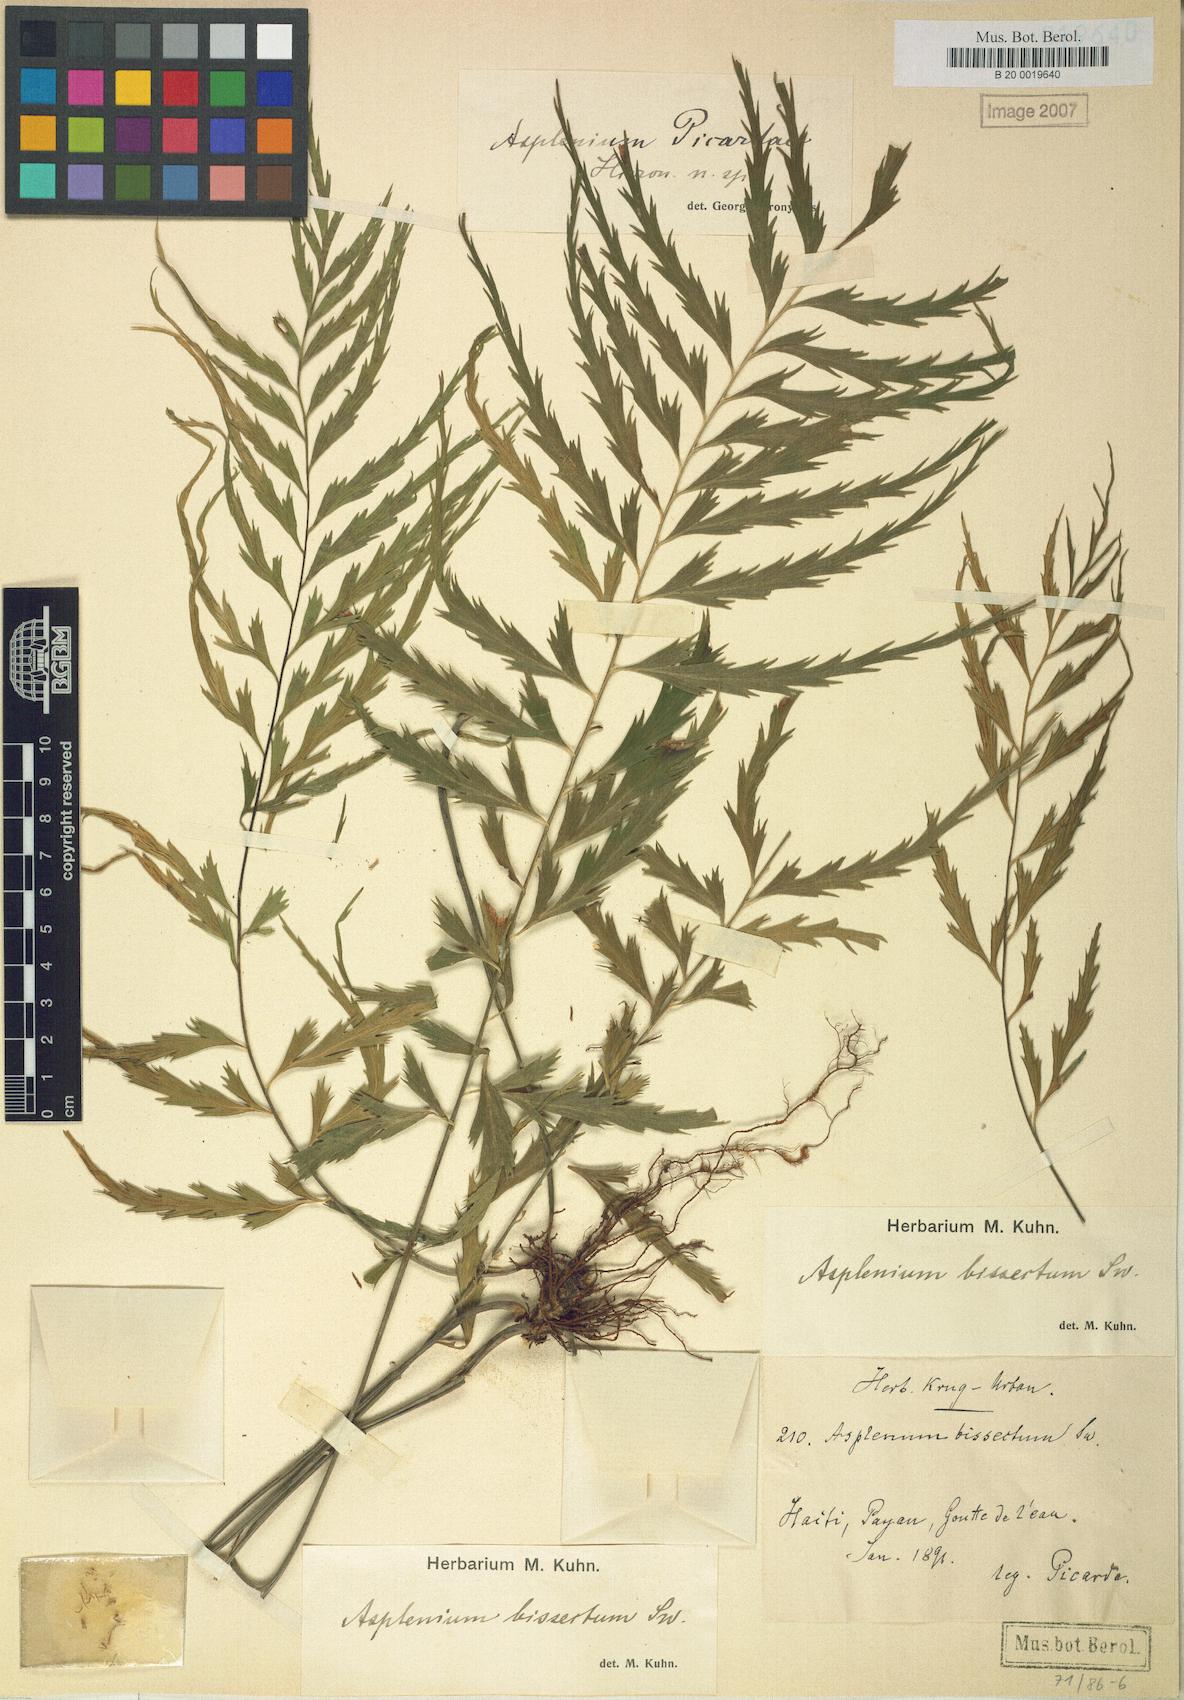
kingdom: Plantae
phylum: Tracheophyta
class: Polypodiopsida
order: Polypodiales
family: Aspleniaceae
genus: Asplenium
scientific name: Asplenium picardae
